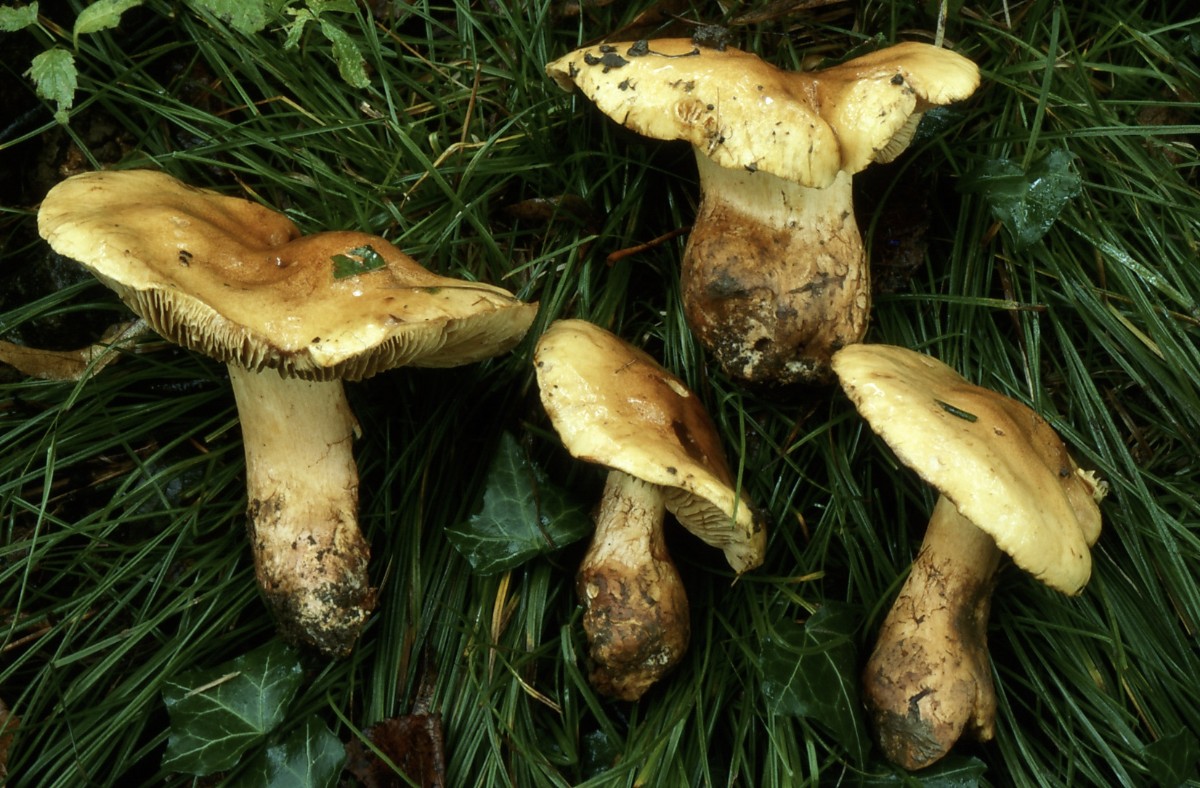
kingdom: Fungi
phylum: Basidiomycota
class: Agaricomycetes
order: Agaricales
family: Cortinariaceae
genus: Phlegmacium
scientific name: Phlegmacium majoranae
